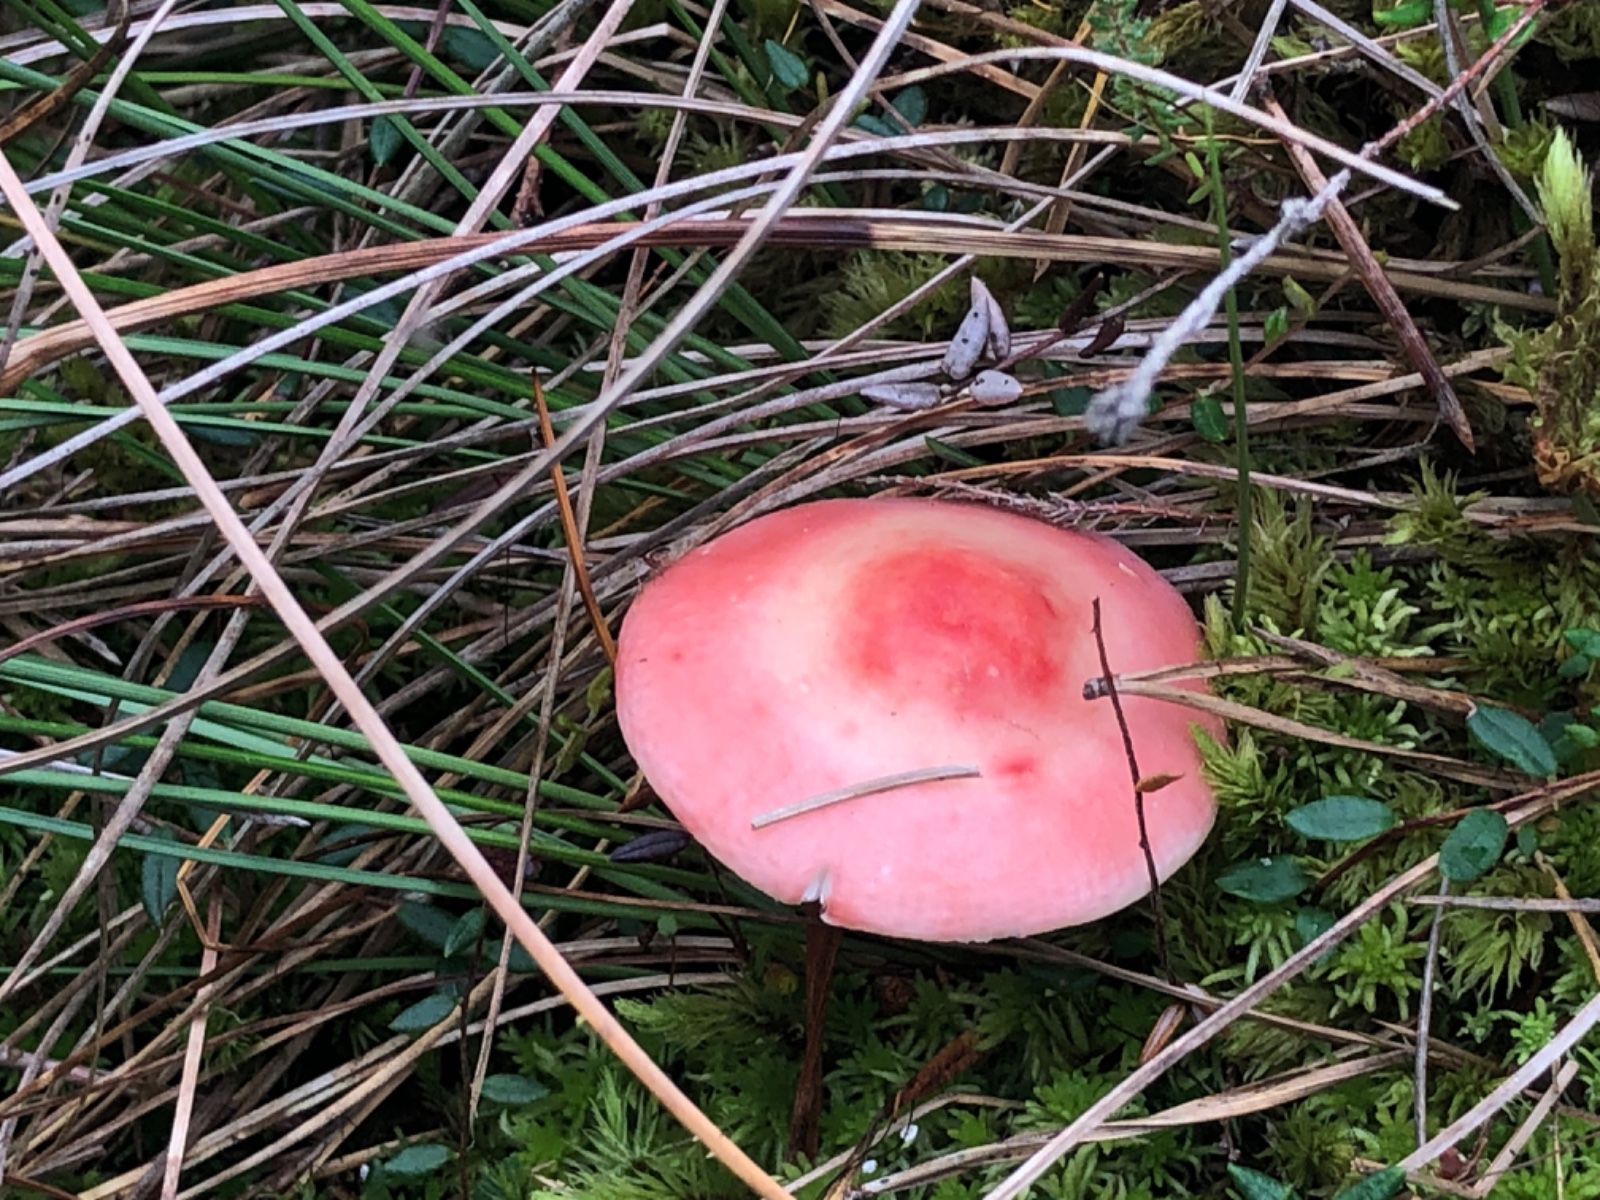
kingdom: Fungi
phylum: Basidiomycota
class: Agaricomycetes
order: Russulales
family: Russulaceae
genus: Russula
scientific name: Russula emetica
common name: stor gift-skørhat
